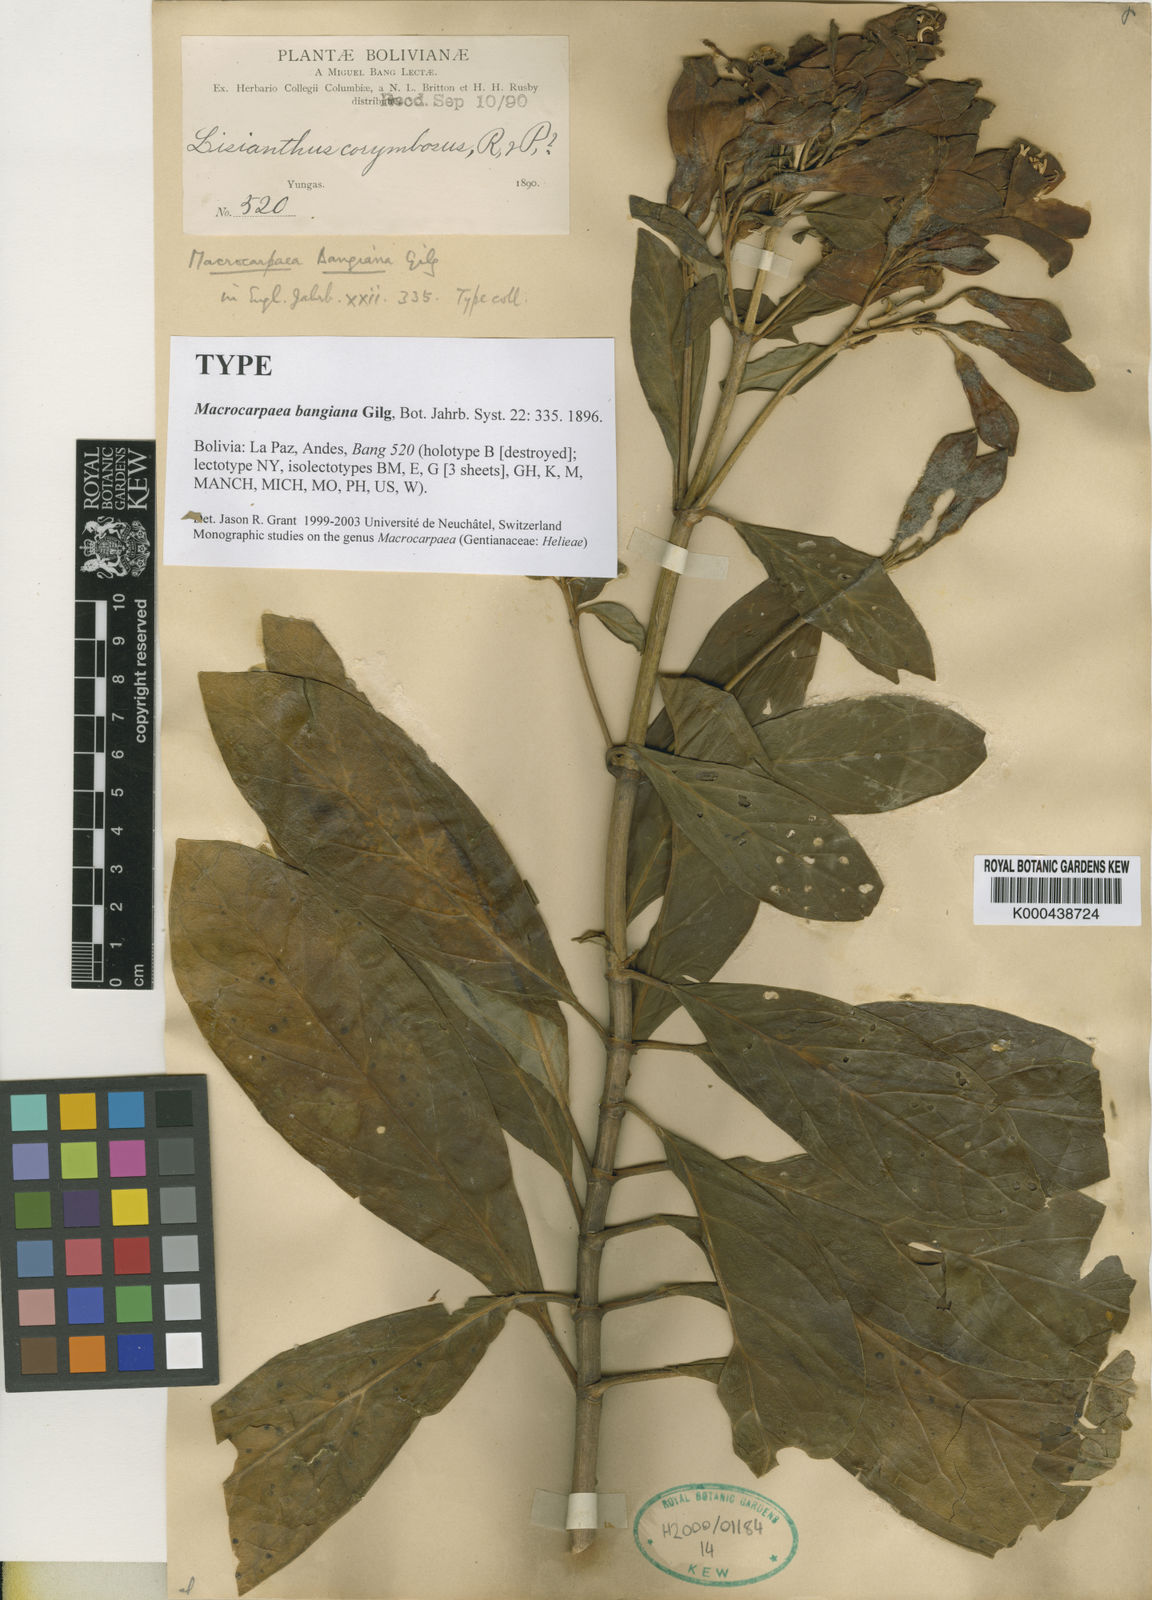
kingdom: Plantae
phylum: Tracheophyta
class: Magnoliopsida
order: Gentianales
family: Gentianaceae
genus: Macrocarpaea
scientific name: Macrocarpaea bangiana
